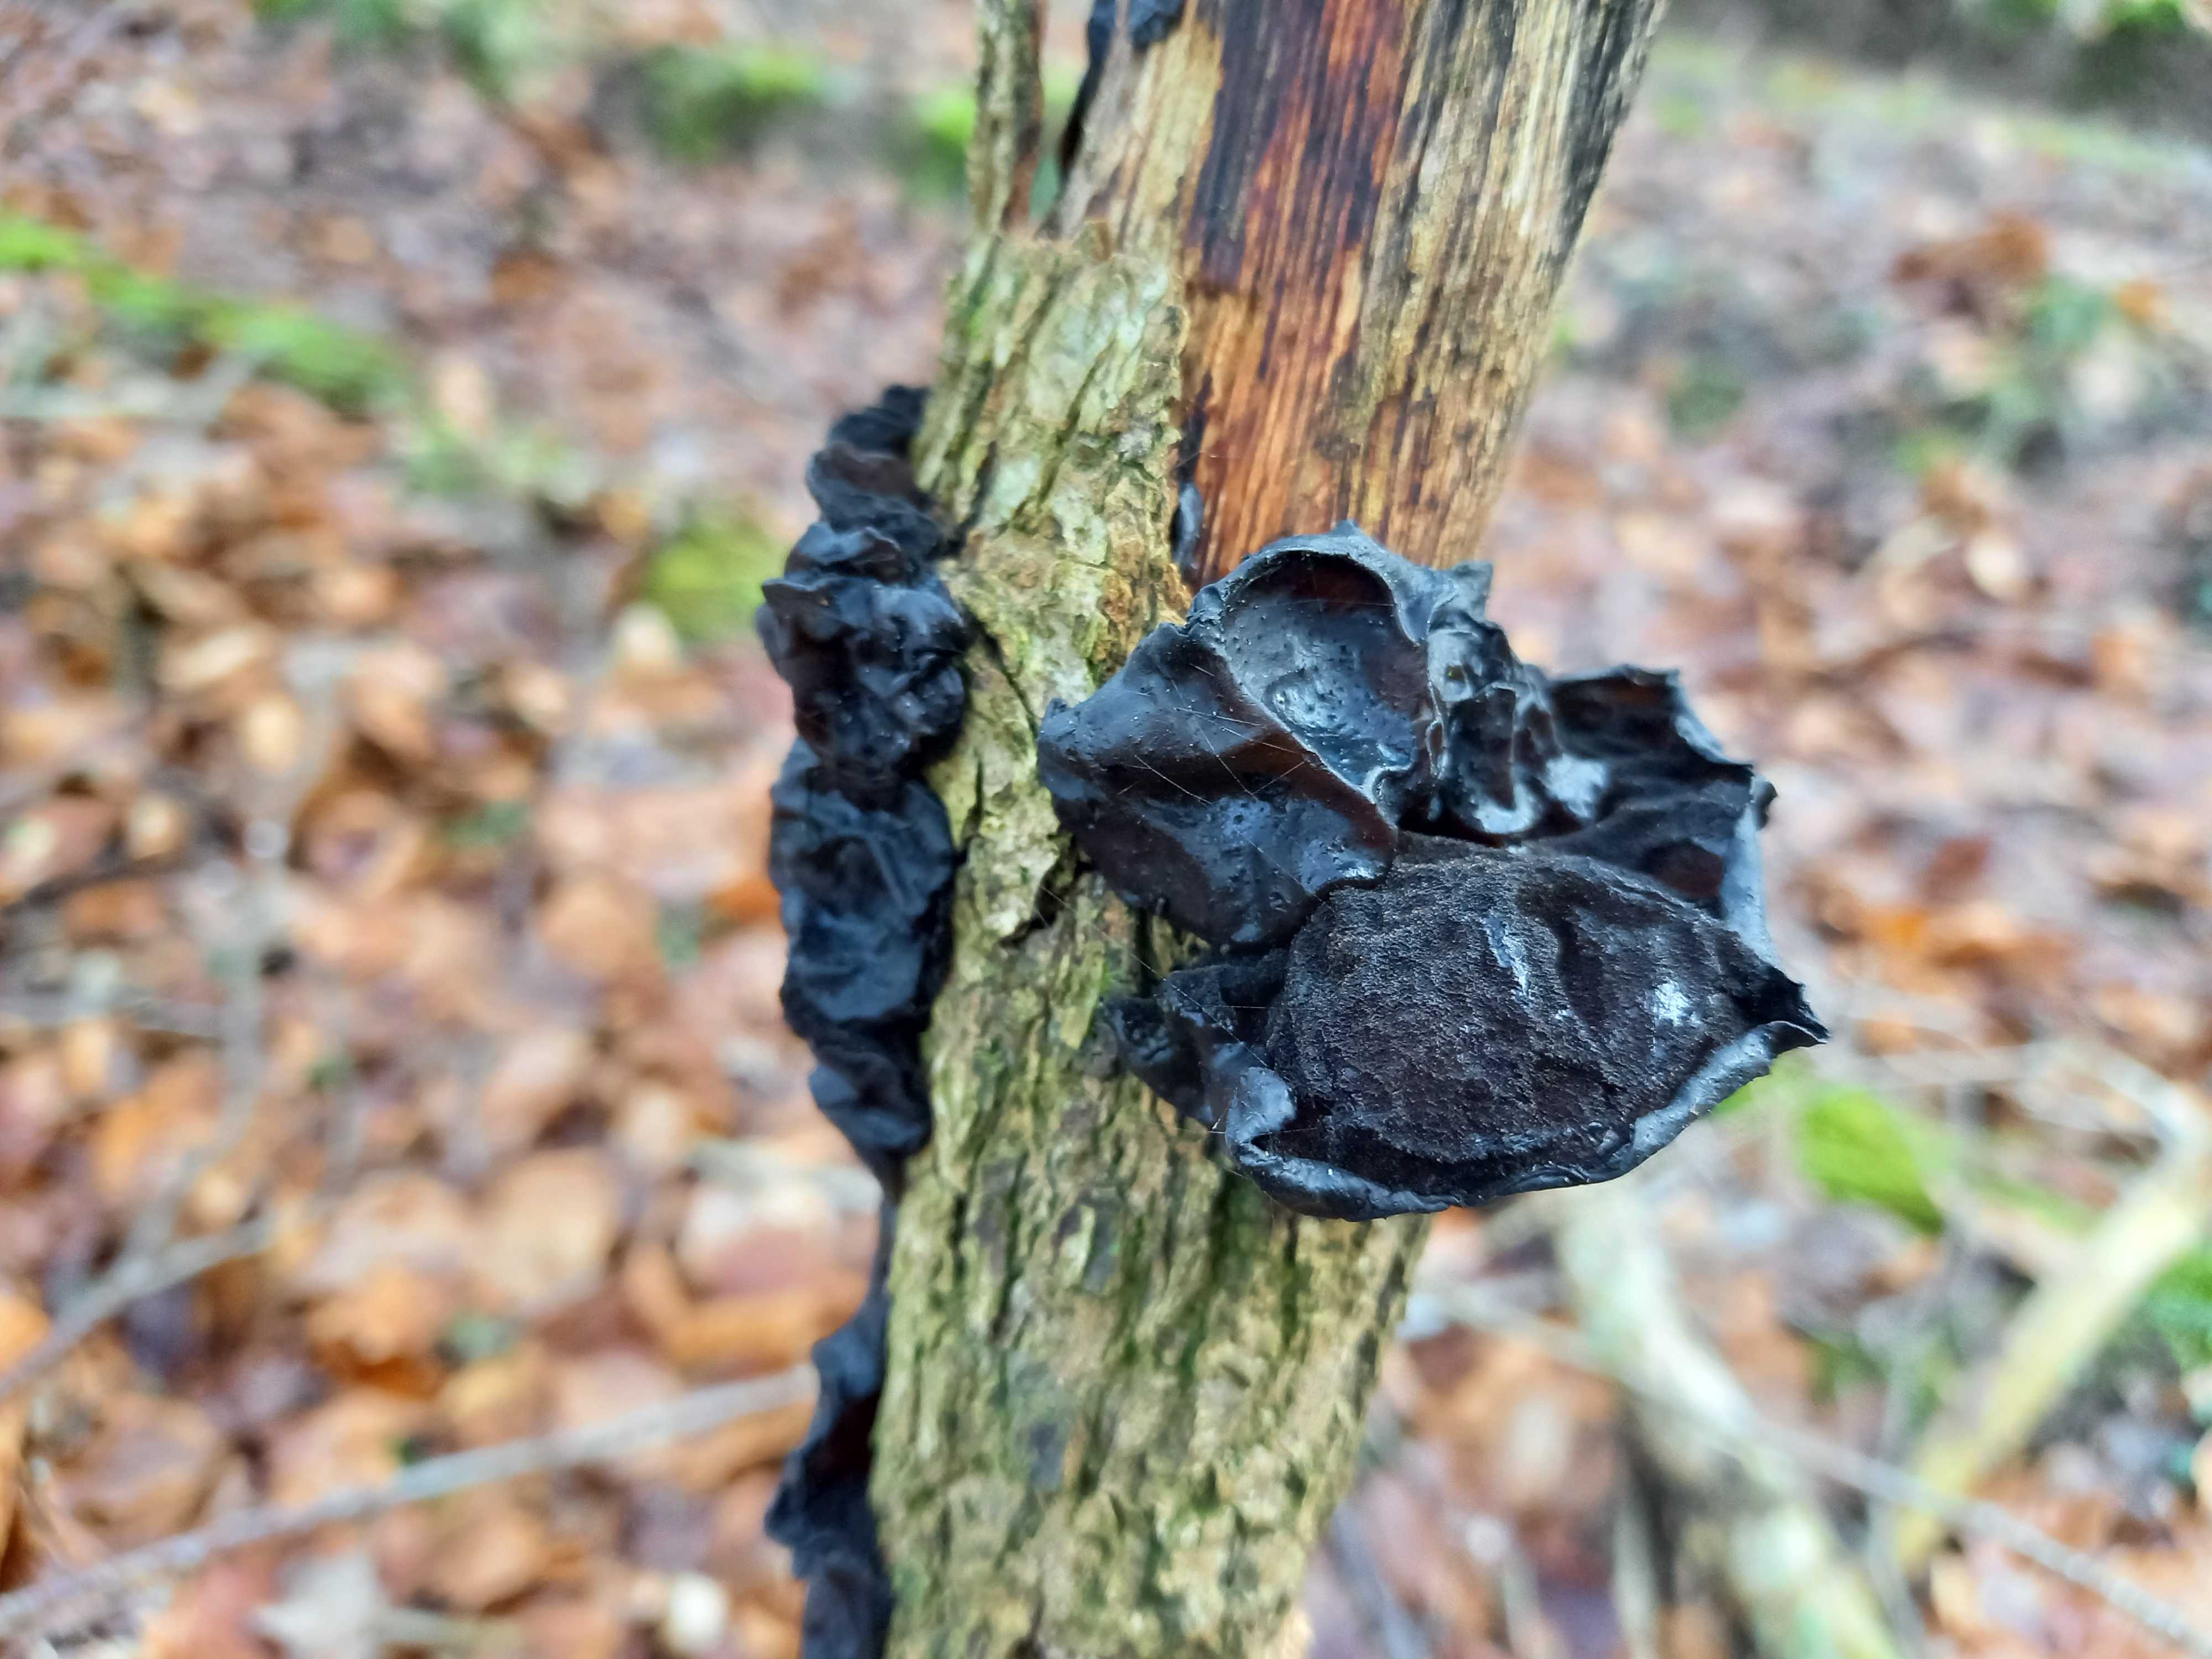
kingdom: Fungi
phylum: Basidiomycota
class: Agaricomycetes
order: Auriculariales
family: Auriculariaceae
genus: Exidia
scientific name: Exidia glandulosa
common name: ege-bævretop
